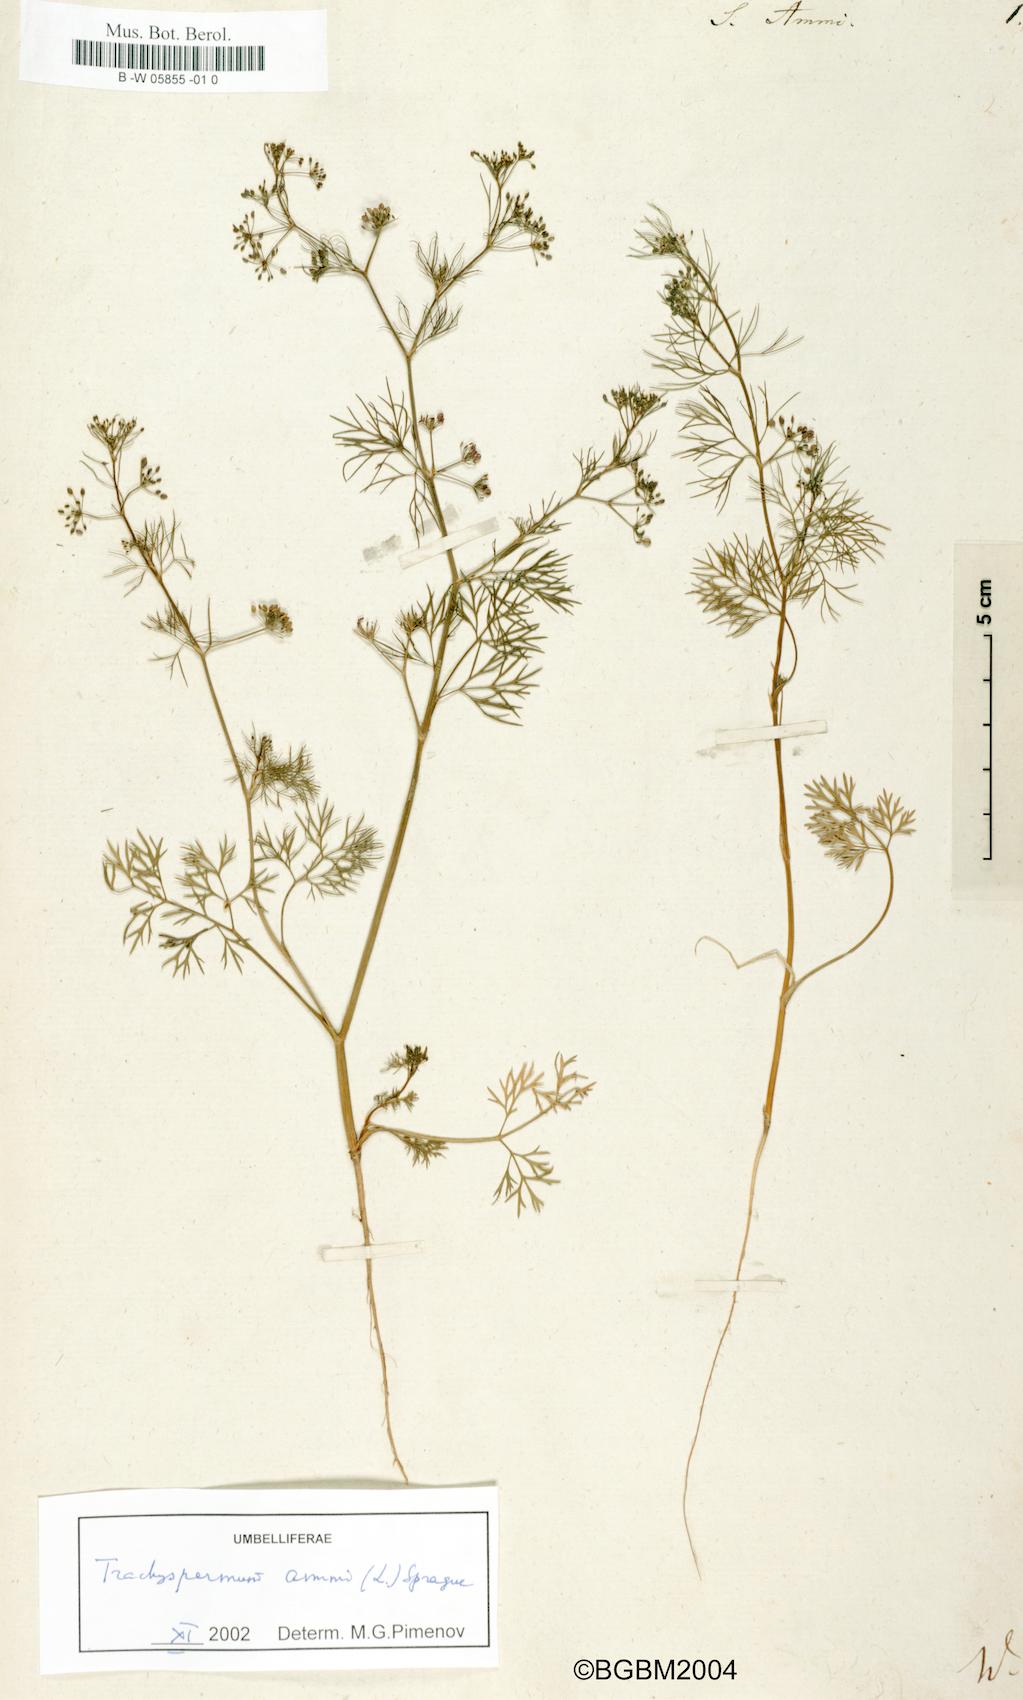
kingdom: Plantae
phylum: Tracheophyta
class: Magnoliopsida
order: Apiales
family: Apiaceae
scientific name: Apiaceae
